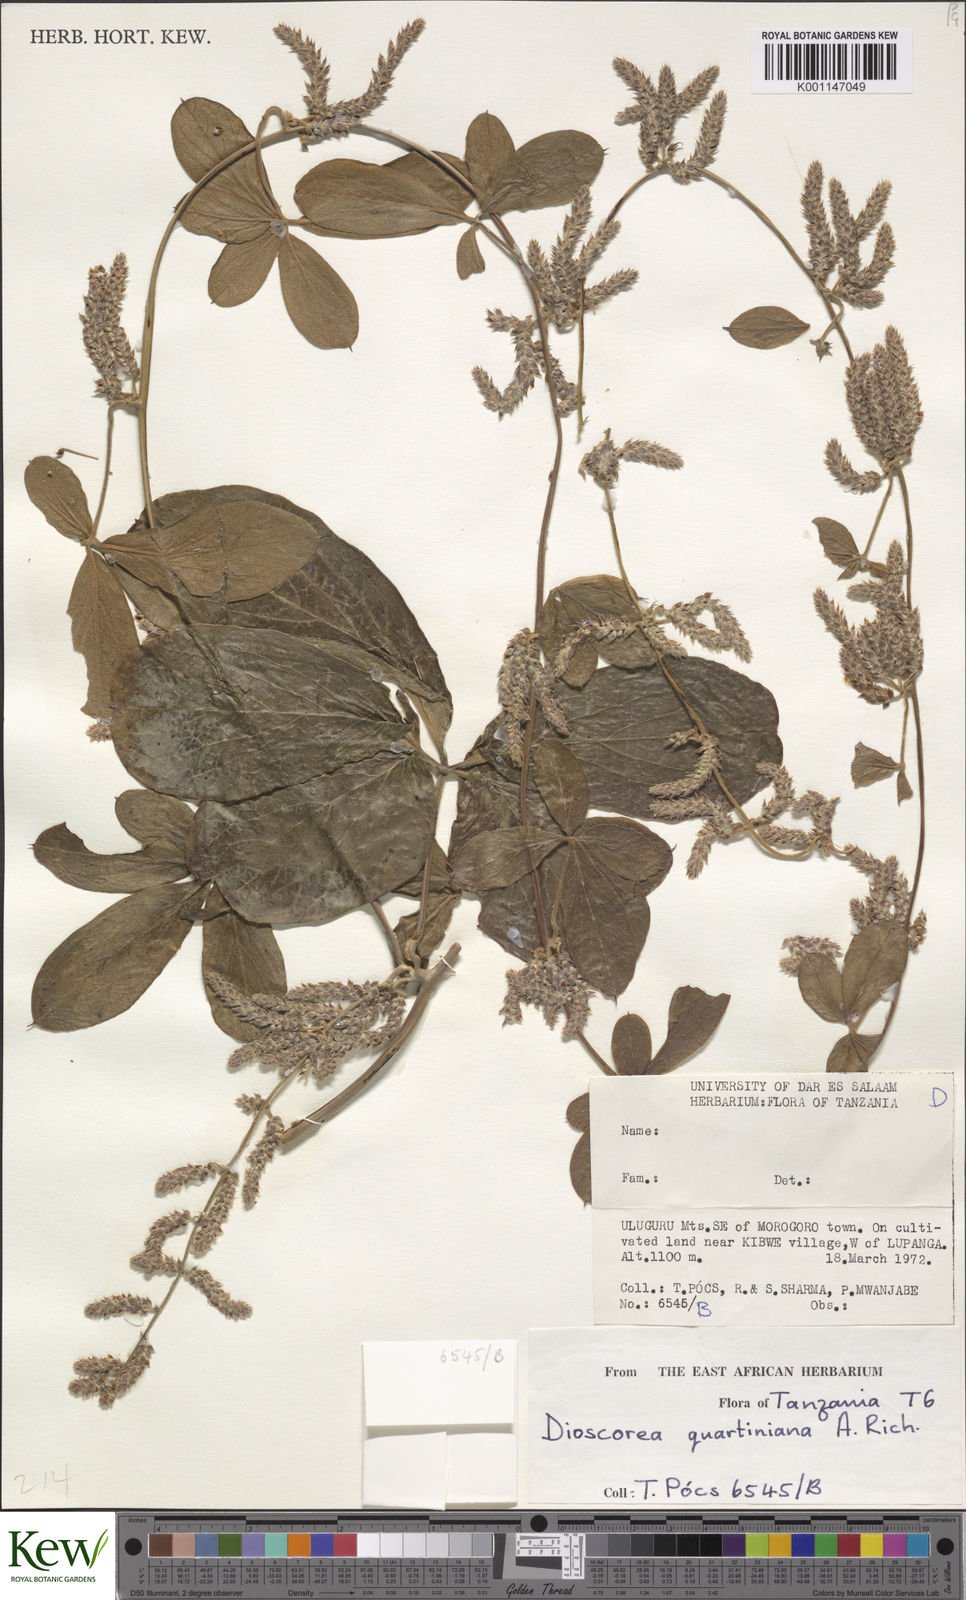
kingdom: Plantae
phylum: Tracheophyta
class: Liliopsida
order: Dioscoreales
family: Dioscoreaceae
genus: Dioscorea
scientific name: Dioscorea quartiniana
